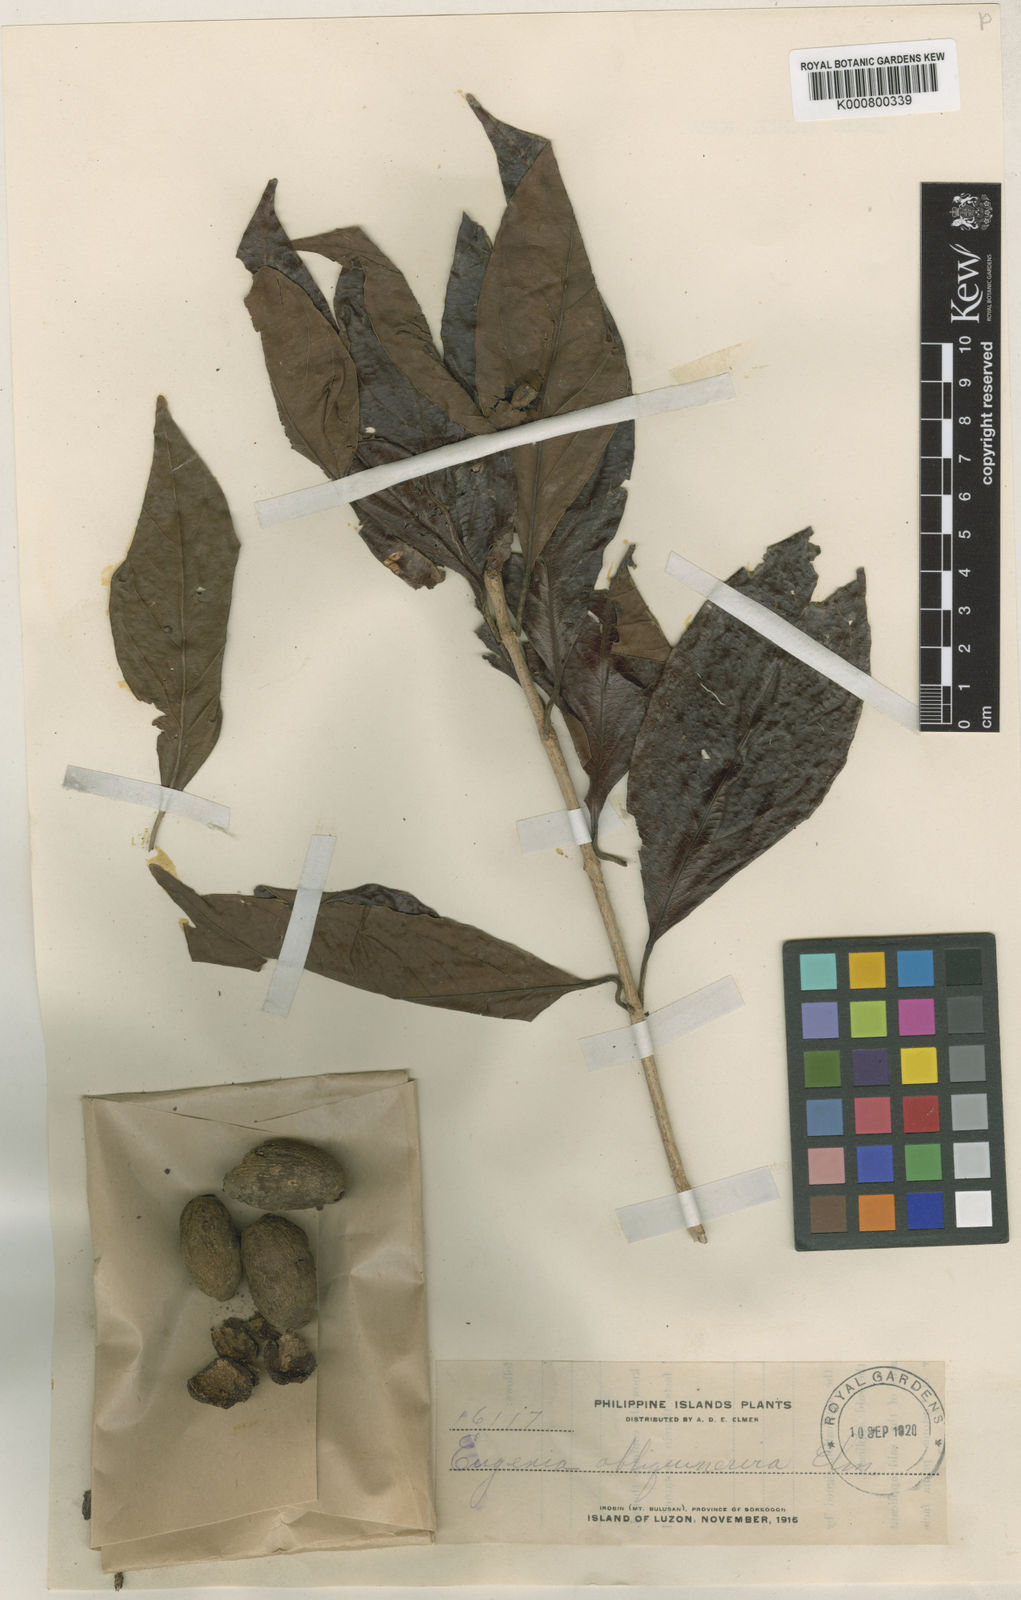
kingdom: Plantae
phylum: Tracheophyta
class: Magnoliopsida
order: Myrtales
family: Myrtaceae
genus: Syzygium
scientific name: Syzygium obliquinervium
